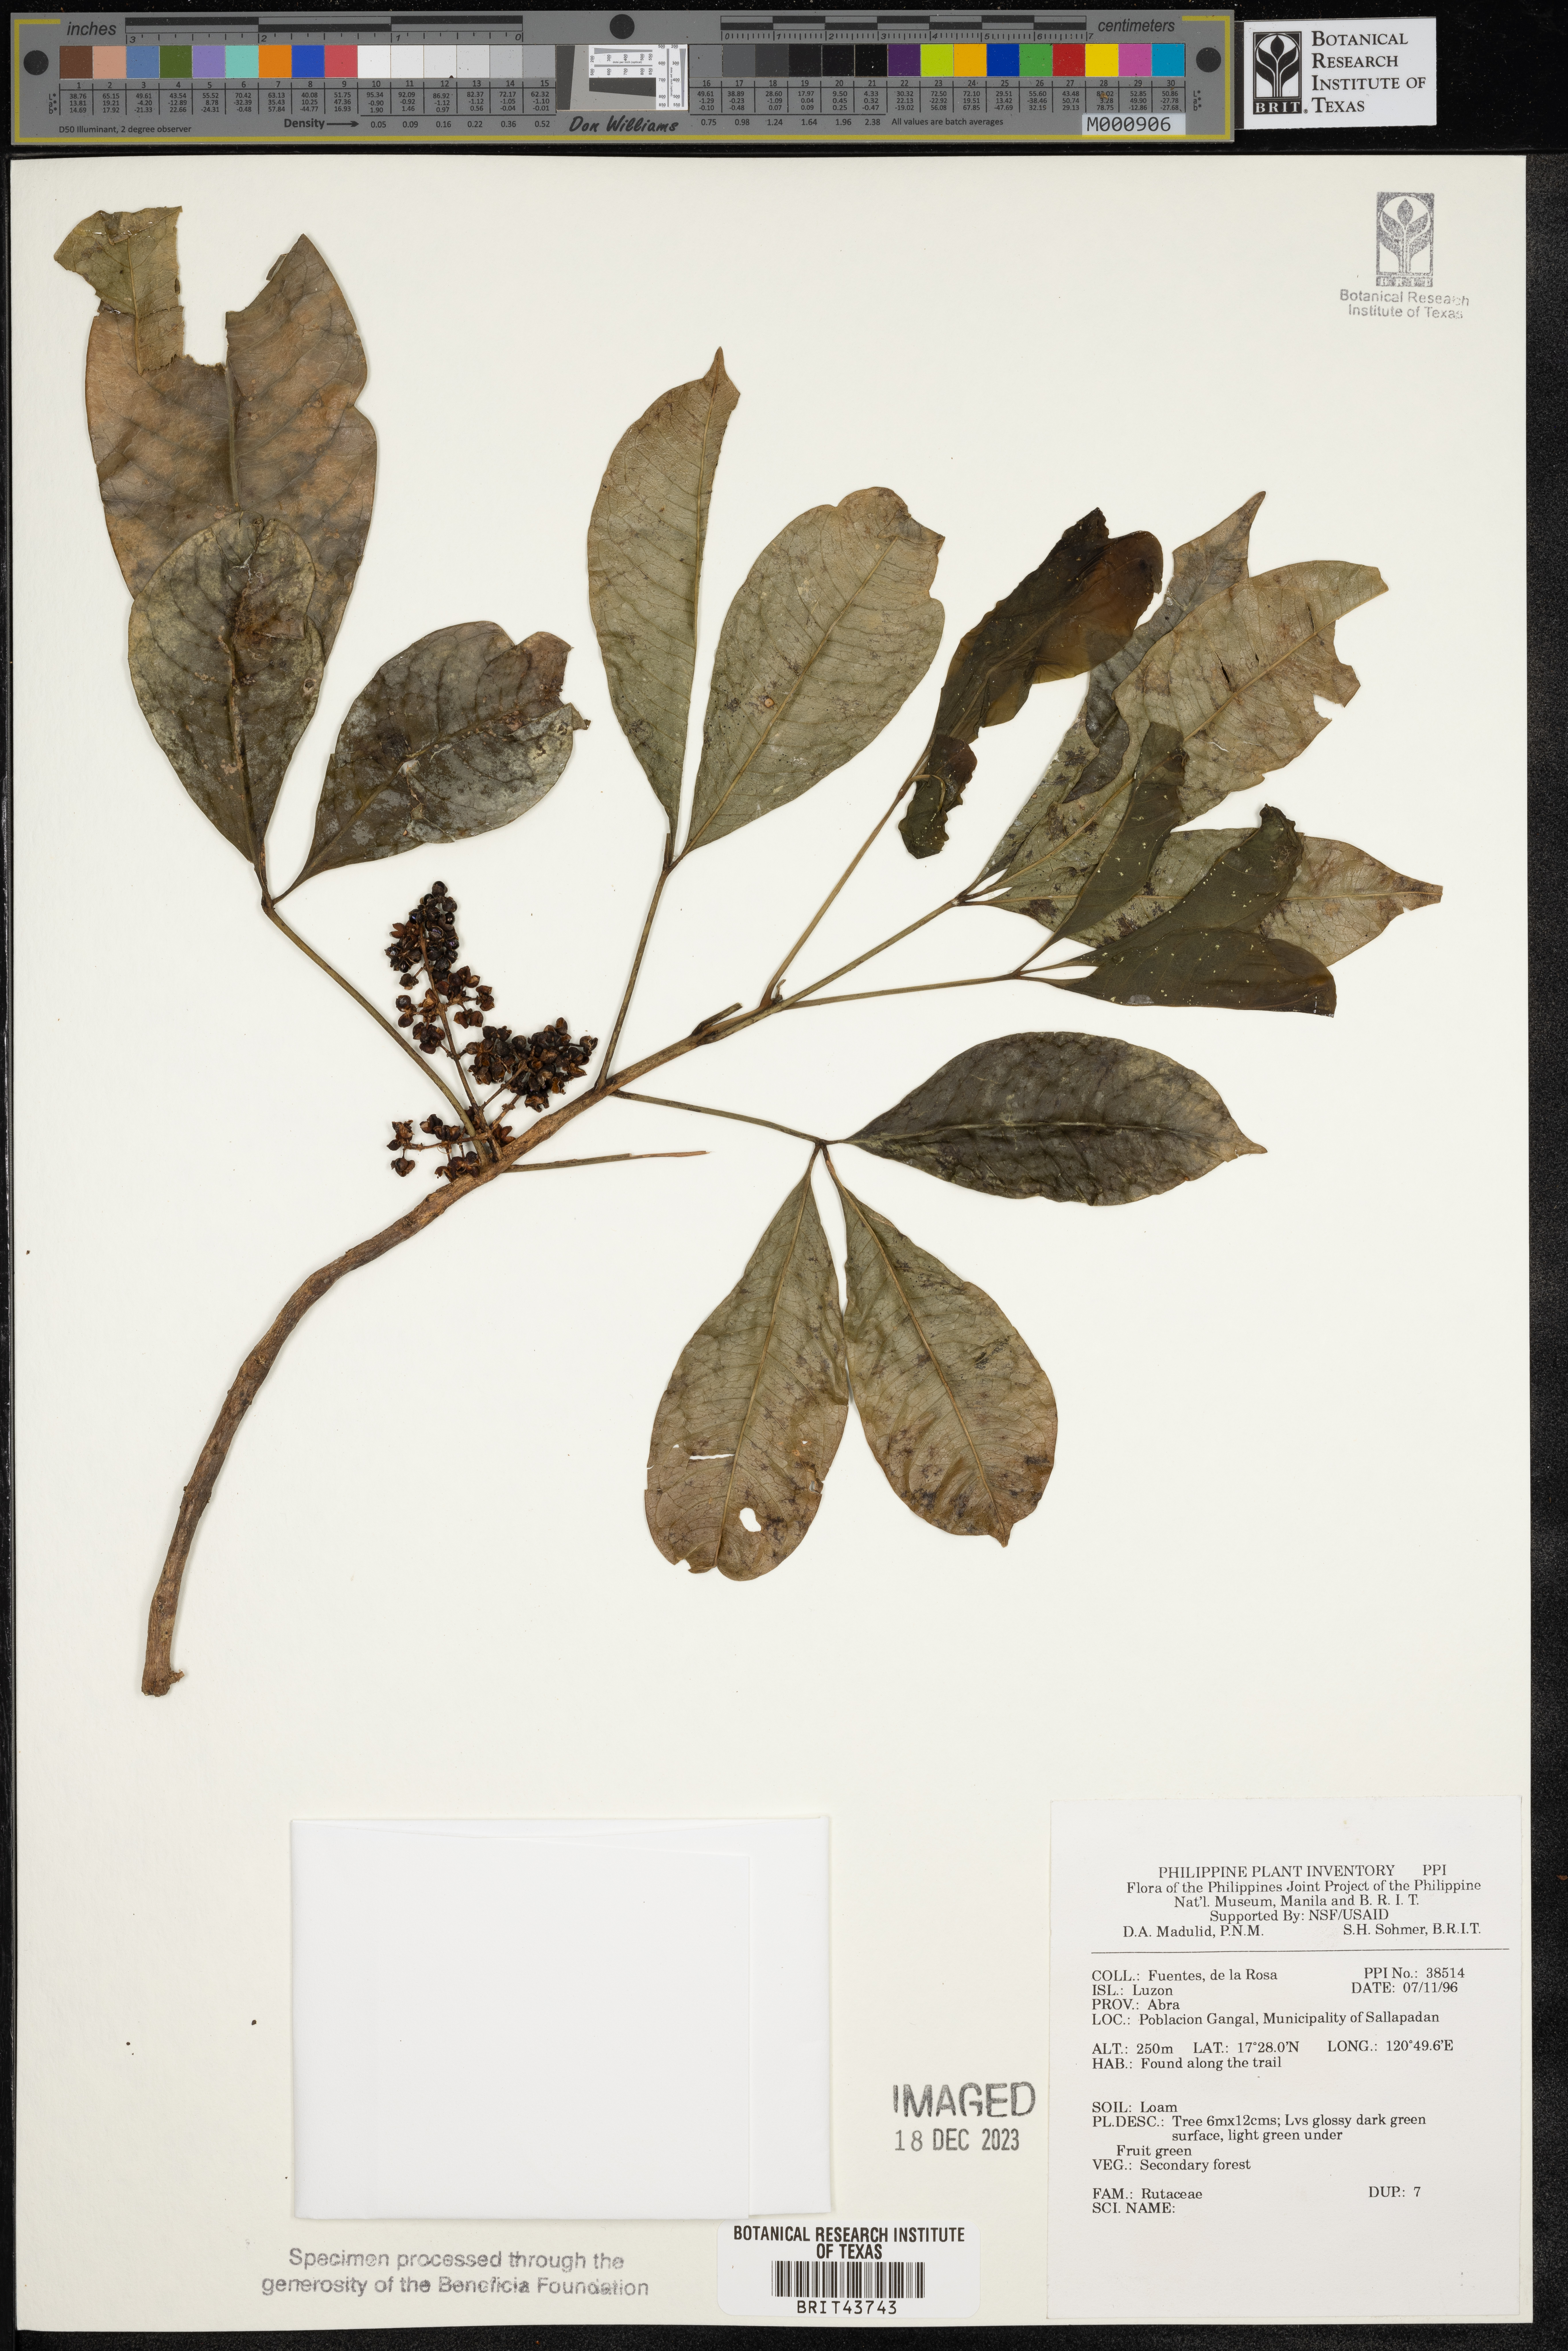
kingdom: Plantae
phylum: Tracheophyta
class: Magnoliopsida
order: Sapindales
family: Rutaceae
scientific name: Rutaceae
